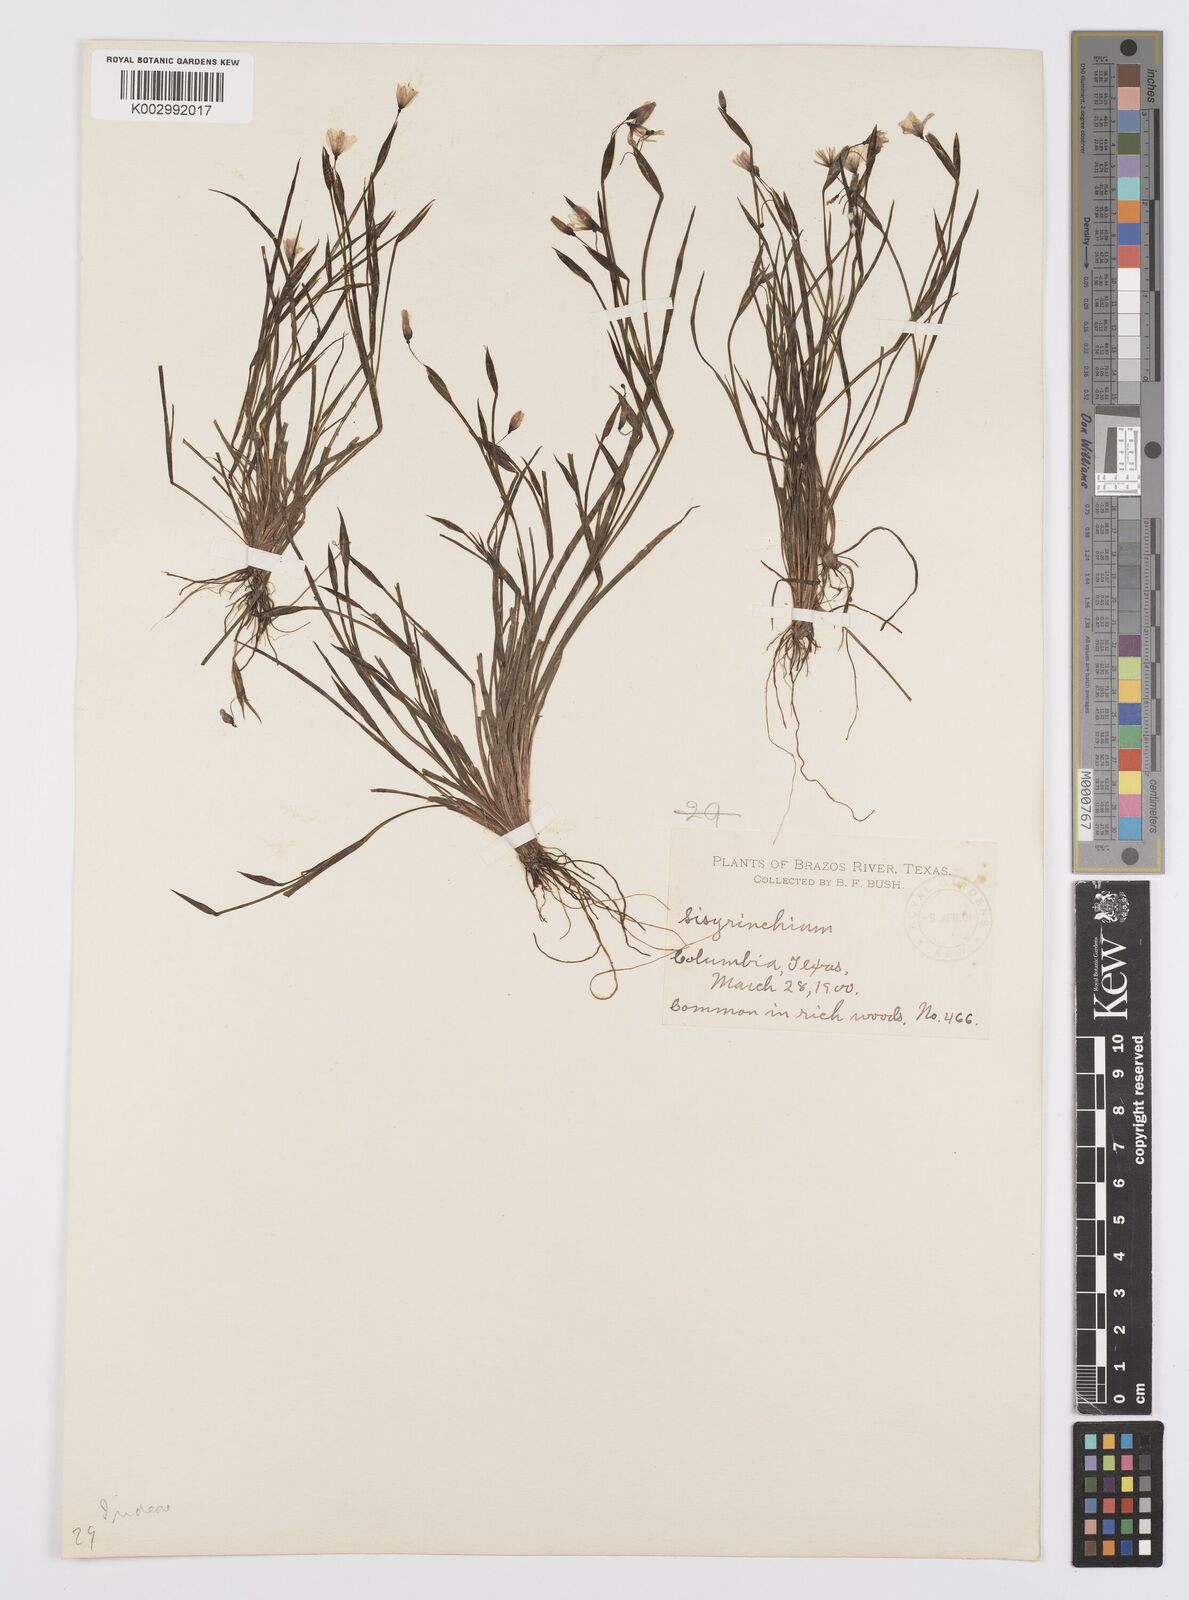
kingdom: Plantae
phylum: Tracheophyta
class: Liliopsida
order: Asparagales
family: Iridaceae
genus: Sisyrinchium
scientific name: Sisyrinchium
